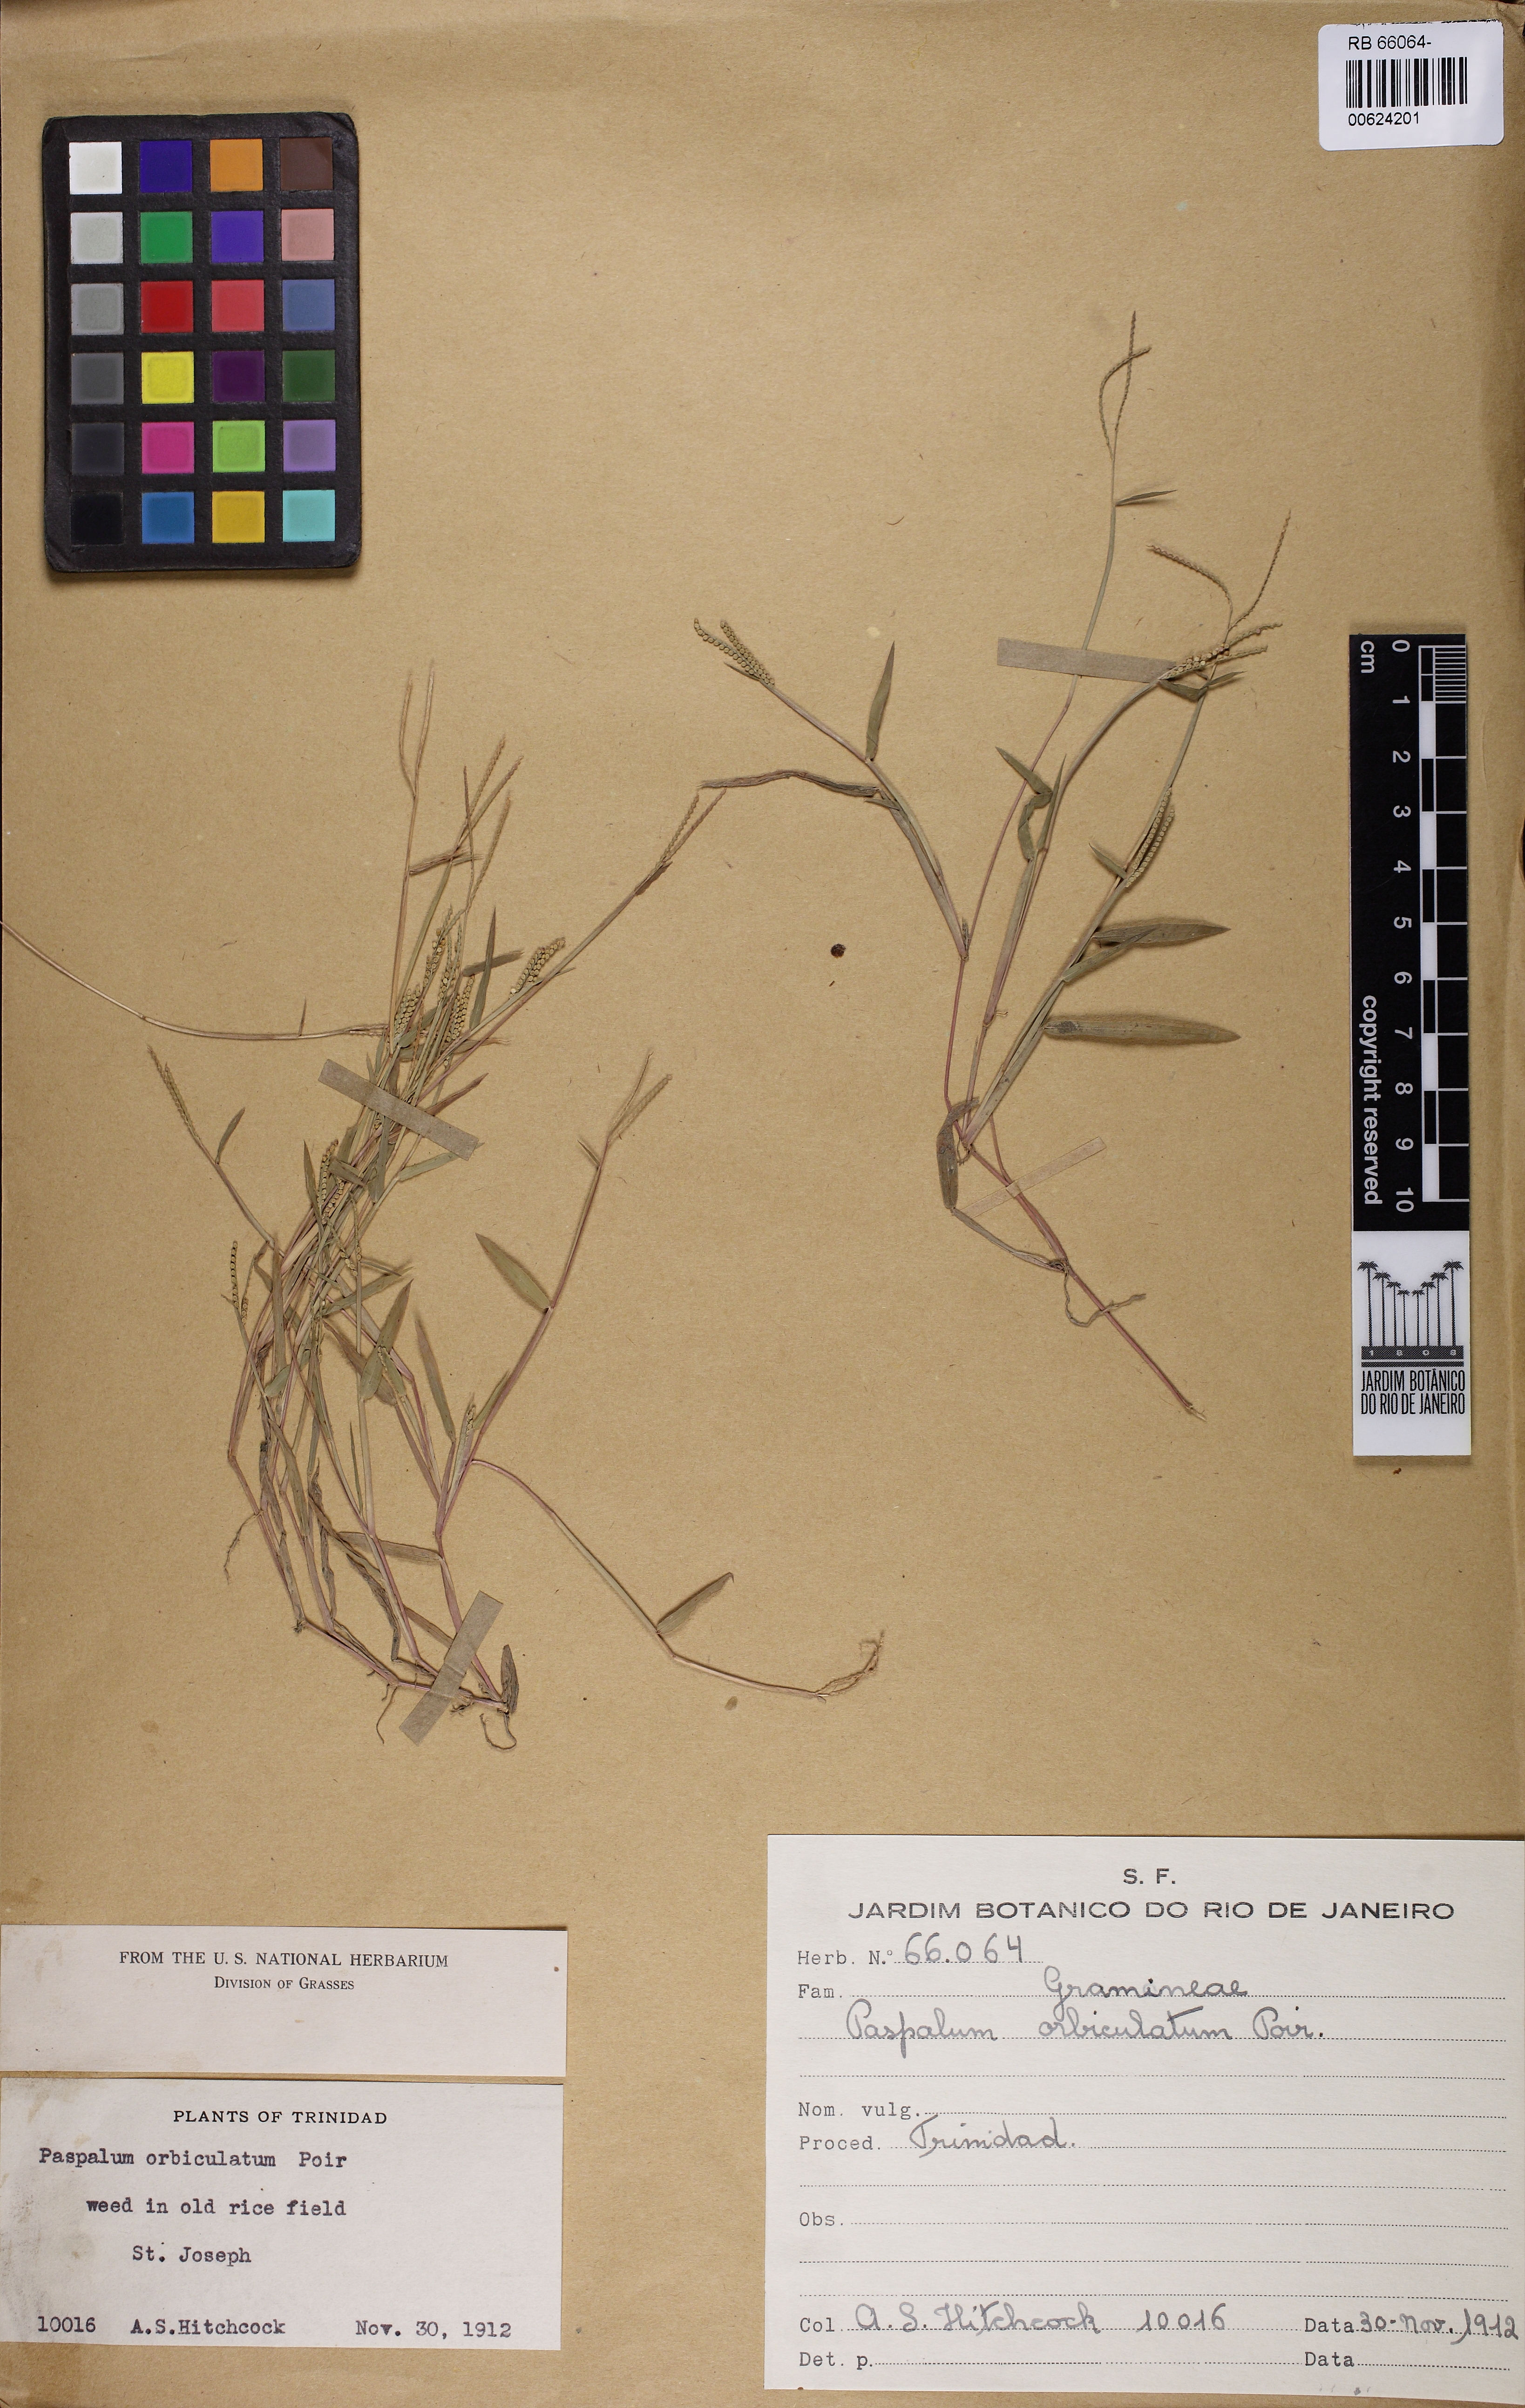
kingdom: Plantae
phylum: Tracheophyta
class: Liliopsida
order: Poales
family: Poaceae
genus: Paspalum
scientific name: Paspalum orbiculatum
